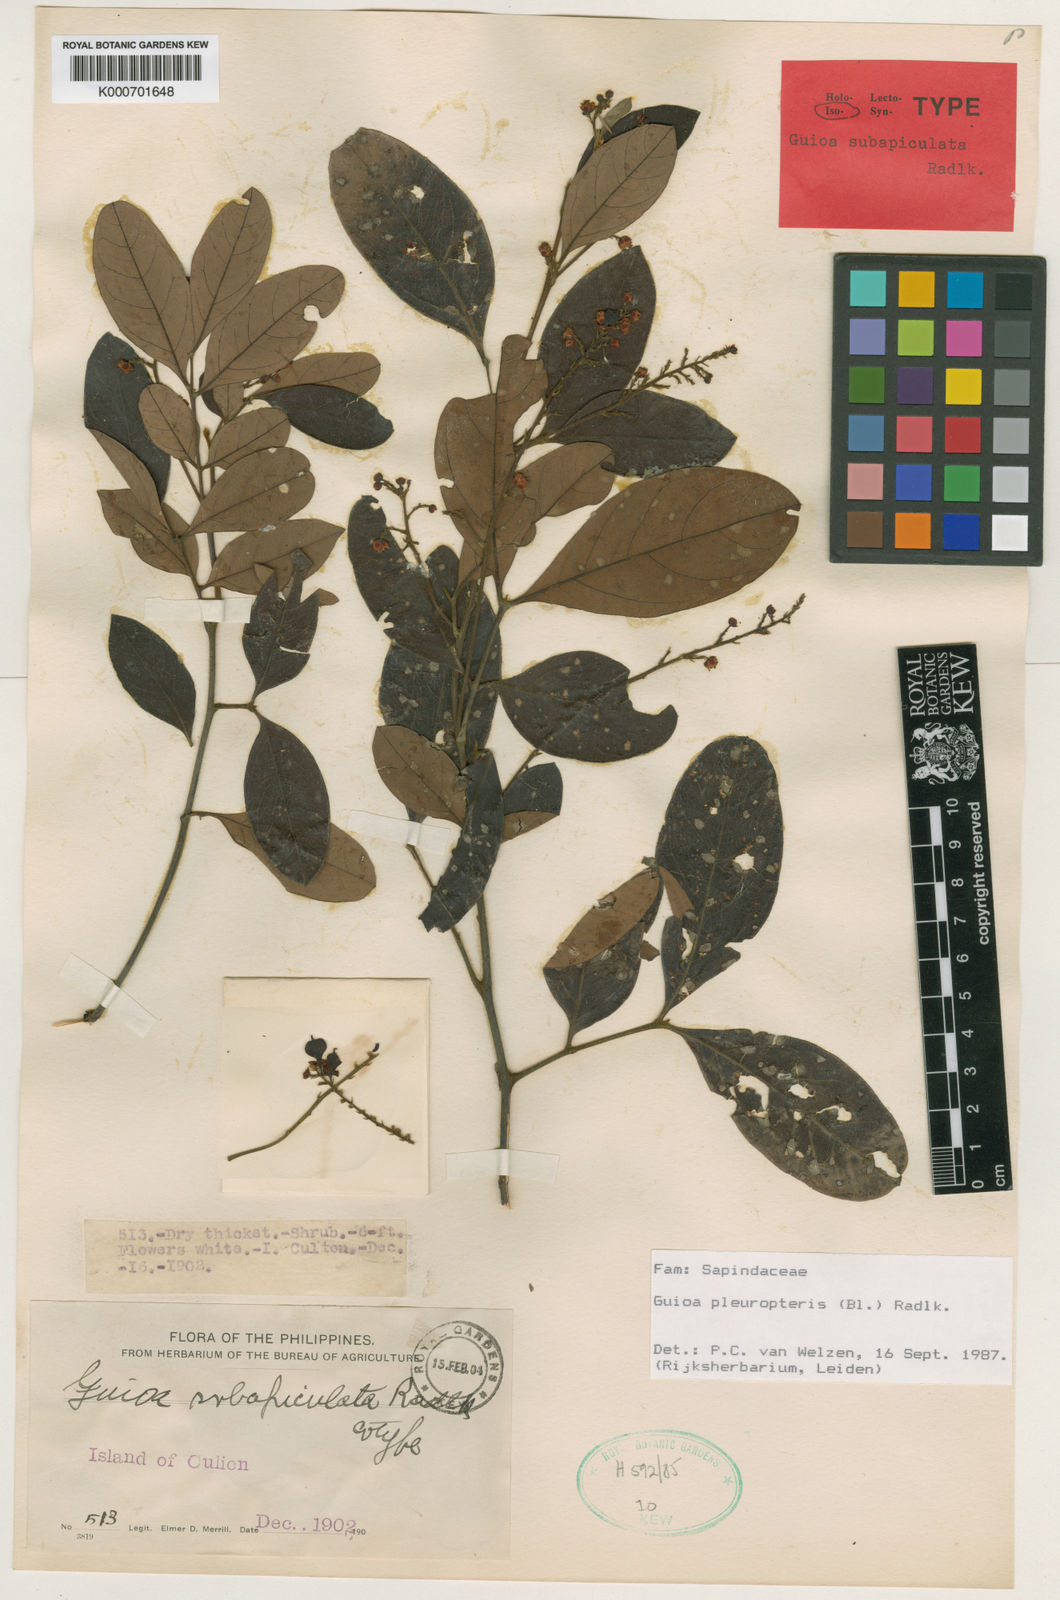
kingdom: Plantae
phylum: Tracheophyta
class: Magnoliopsida
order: Sapindales
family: Sapindaceae
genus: Guioa
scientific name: Guioa pleuropteris
